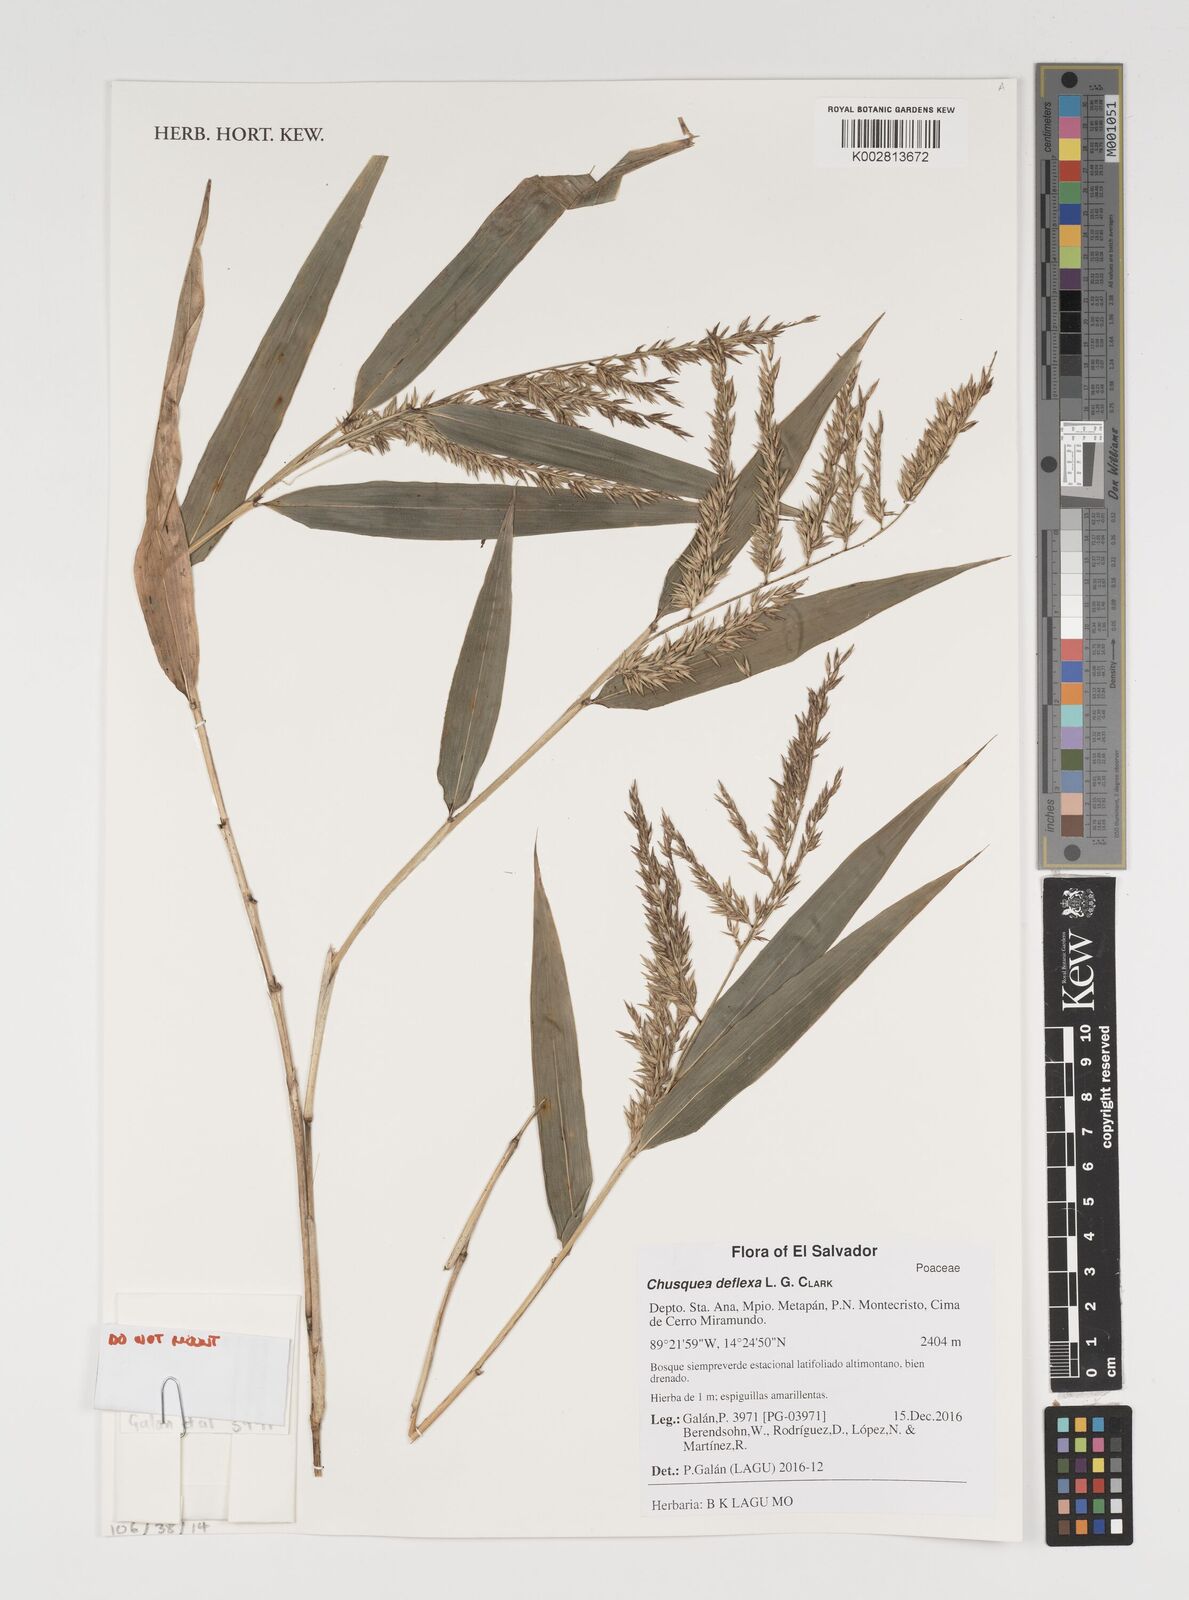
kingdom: Plantae
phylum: Tracheophyta
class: Liliopsida
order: Poales
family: Poaceae
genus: Chusquea
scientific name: Chusquea deflexa
